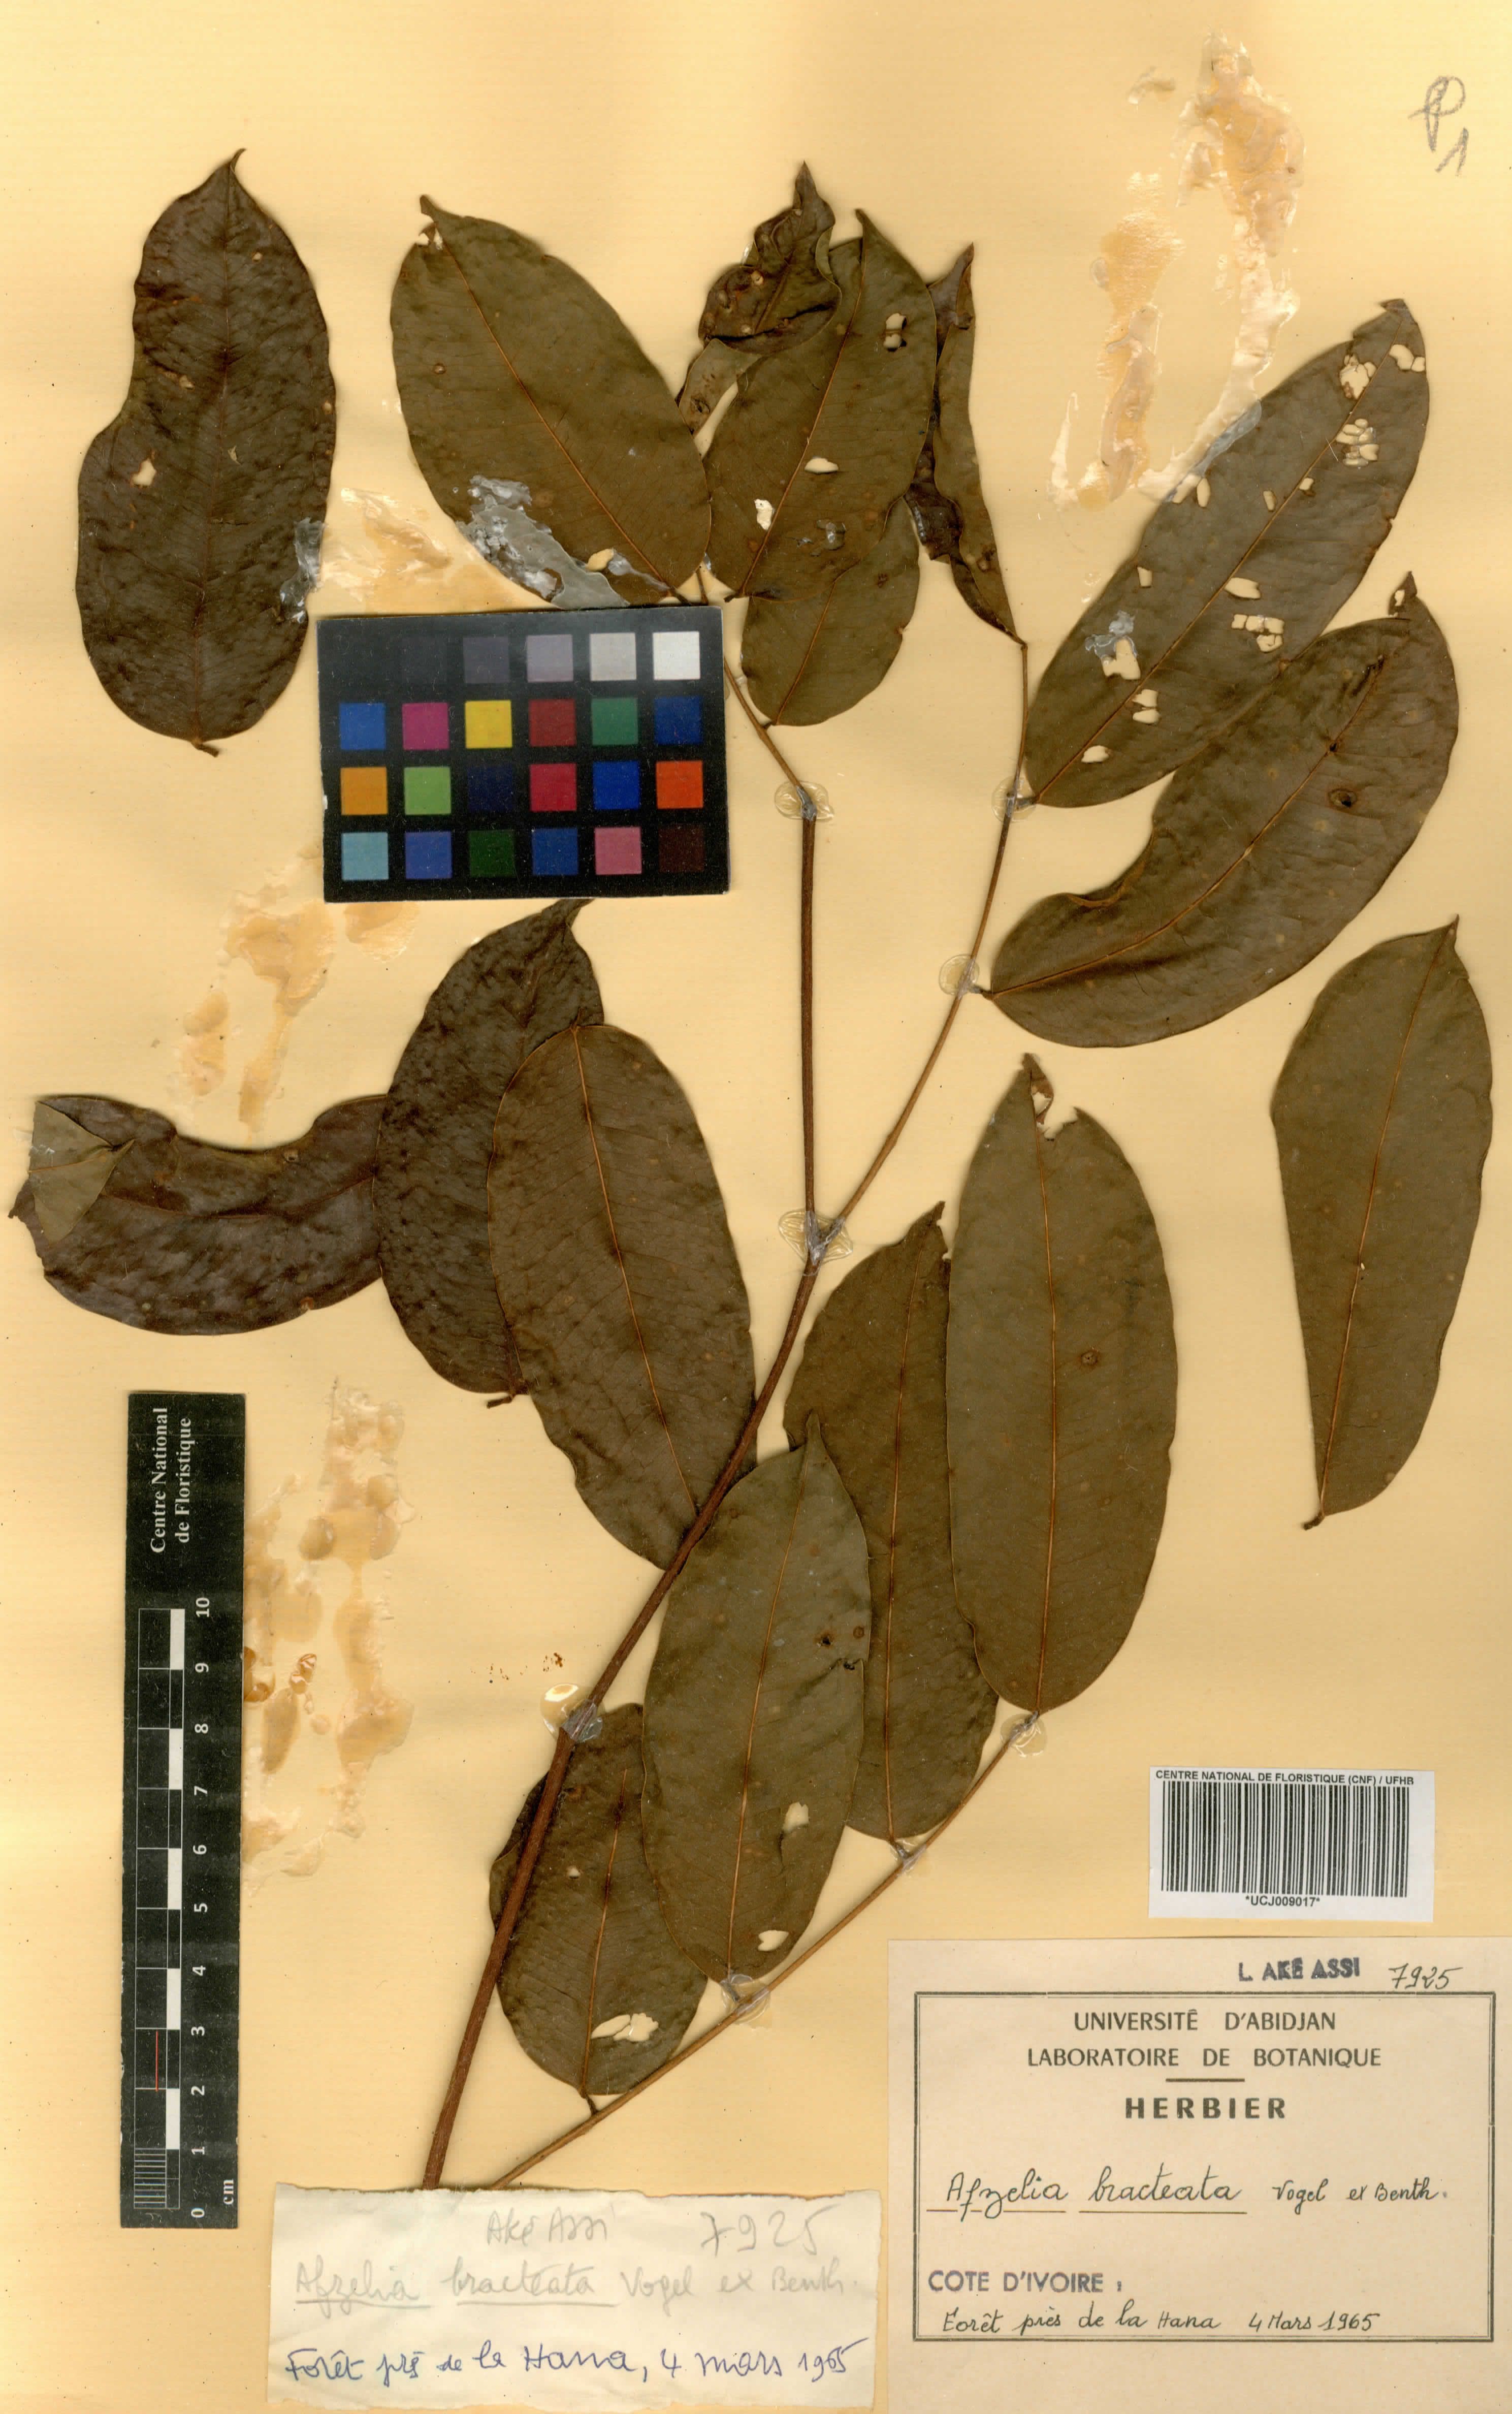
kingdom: Plantae
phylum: Tracheophyta
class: Magnoliopsida
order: Fabales
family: Fabaceae
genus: Afzelia
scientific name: Afzelia parviflora
